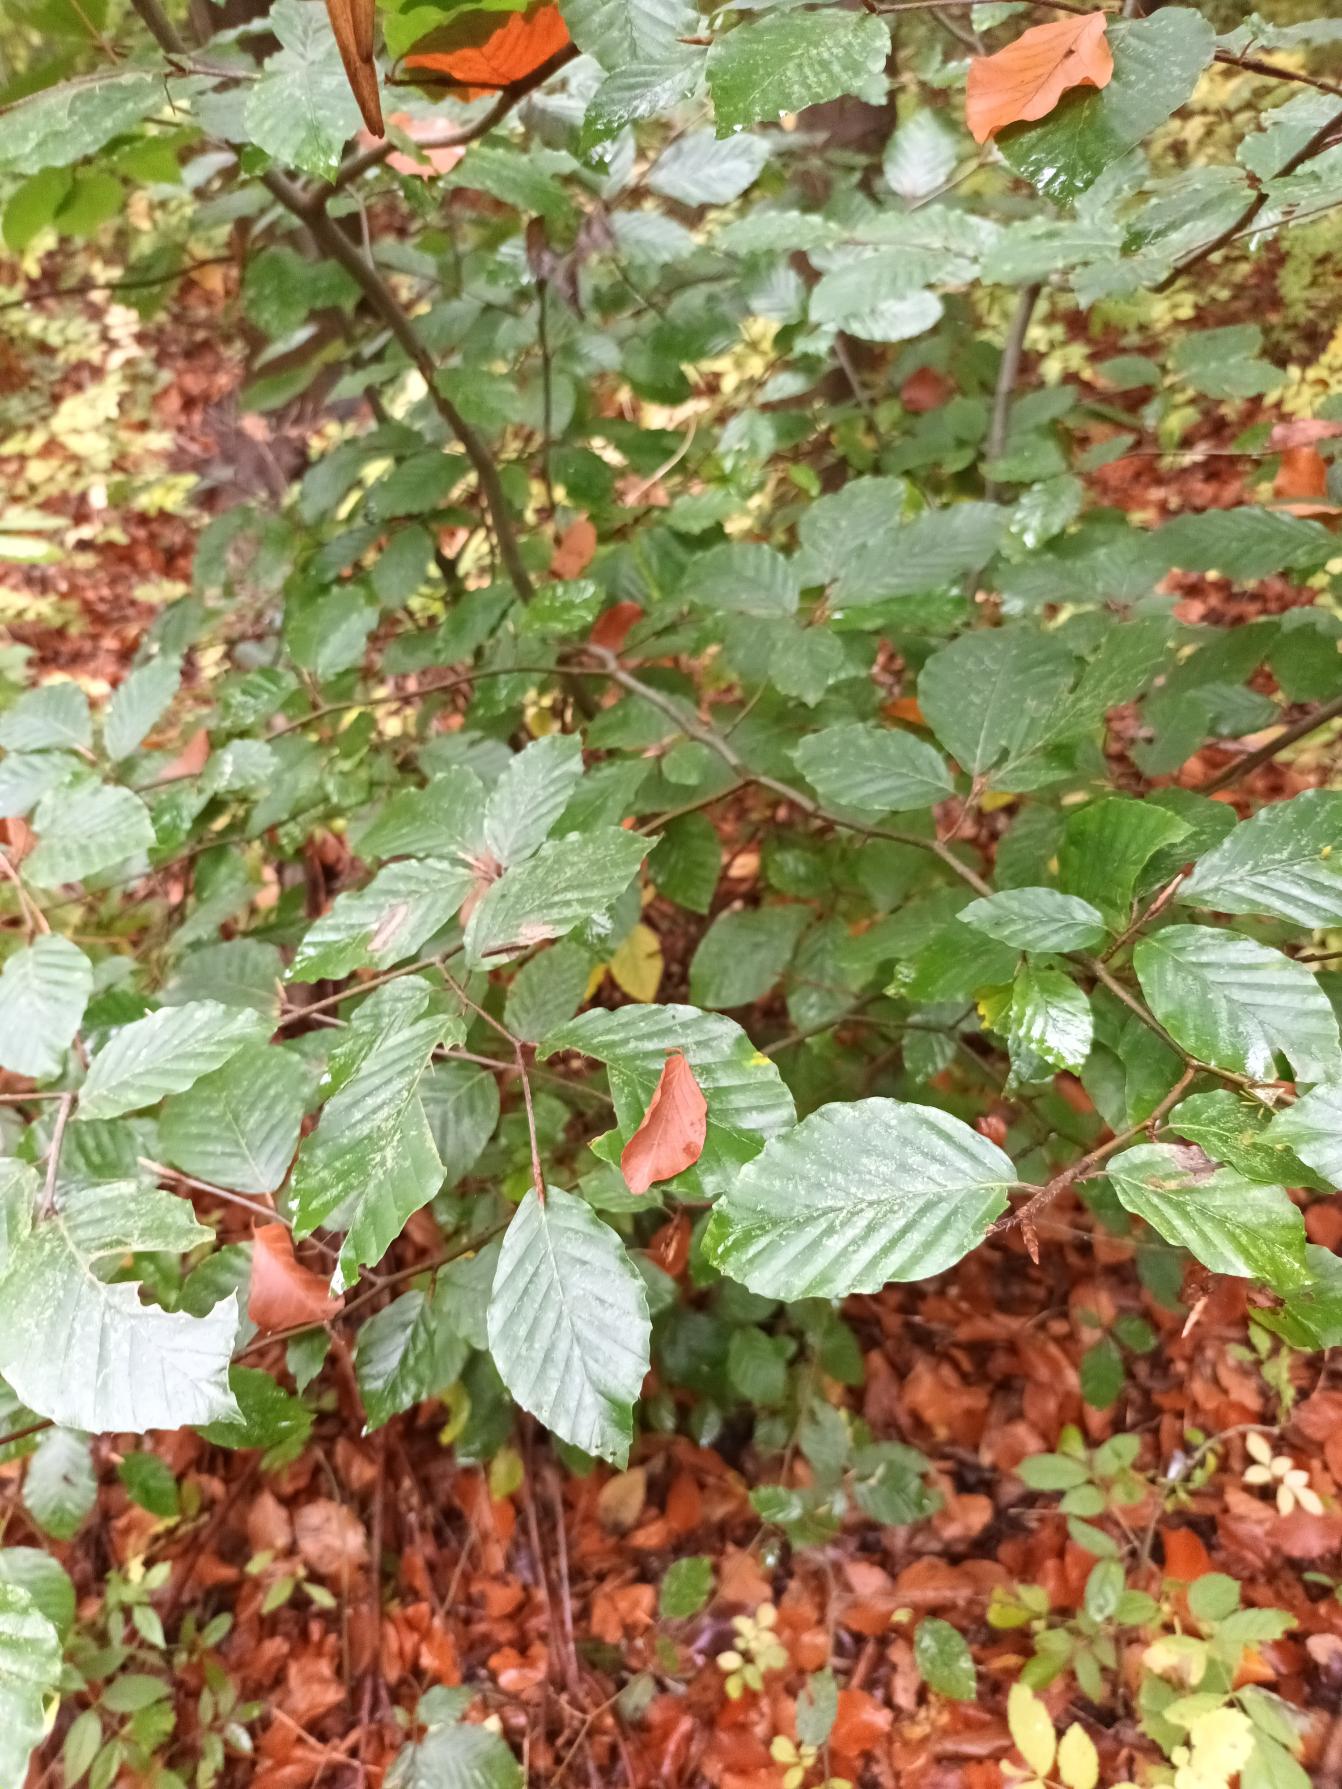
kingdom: Plantae
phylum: Tracheophyta
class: Magnoliopsida
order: Fagales
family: Fagaceae
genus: Fagus
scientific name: Fagus sylvatica
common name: Bøg
